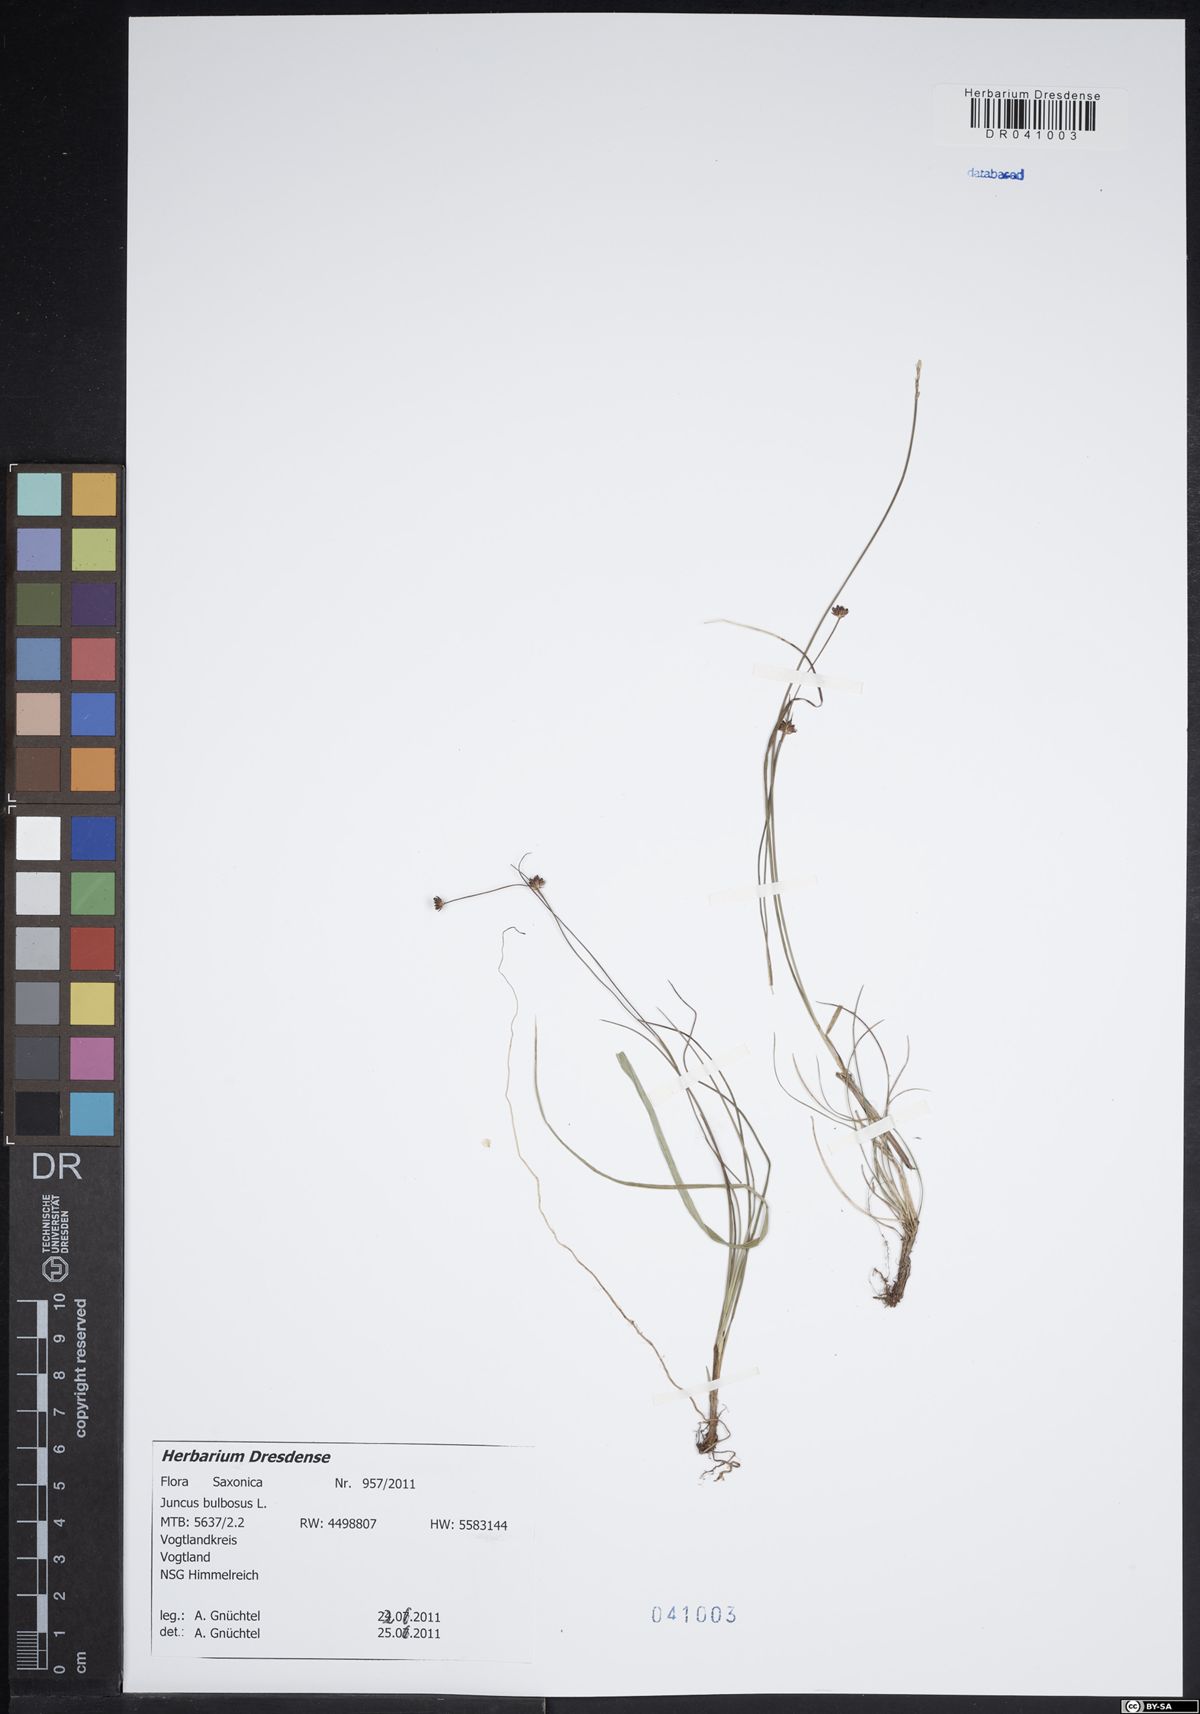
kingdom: Plantae
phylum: Tracheophyta
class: Liliopsida
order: Poales
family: Juncaceae
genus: Juncus
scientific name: Juncus bulbosus
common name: Bulbous rush
